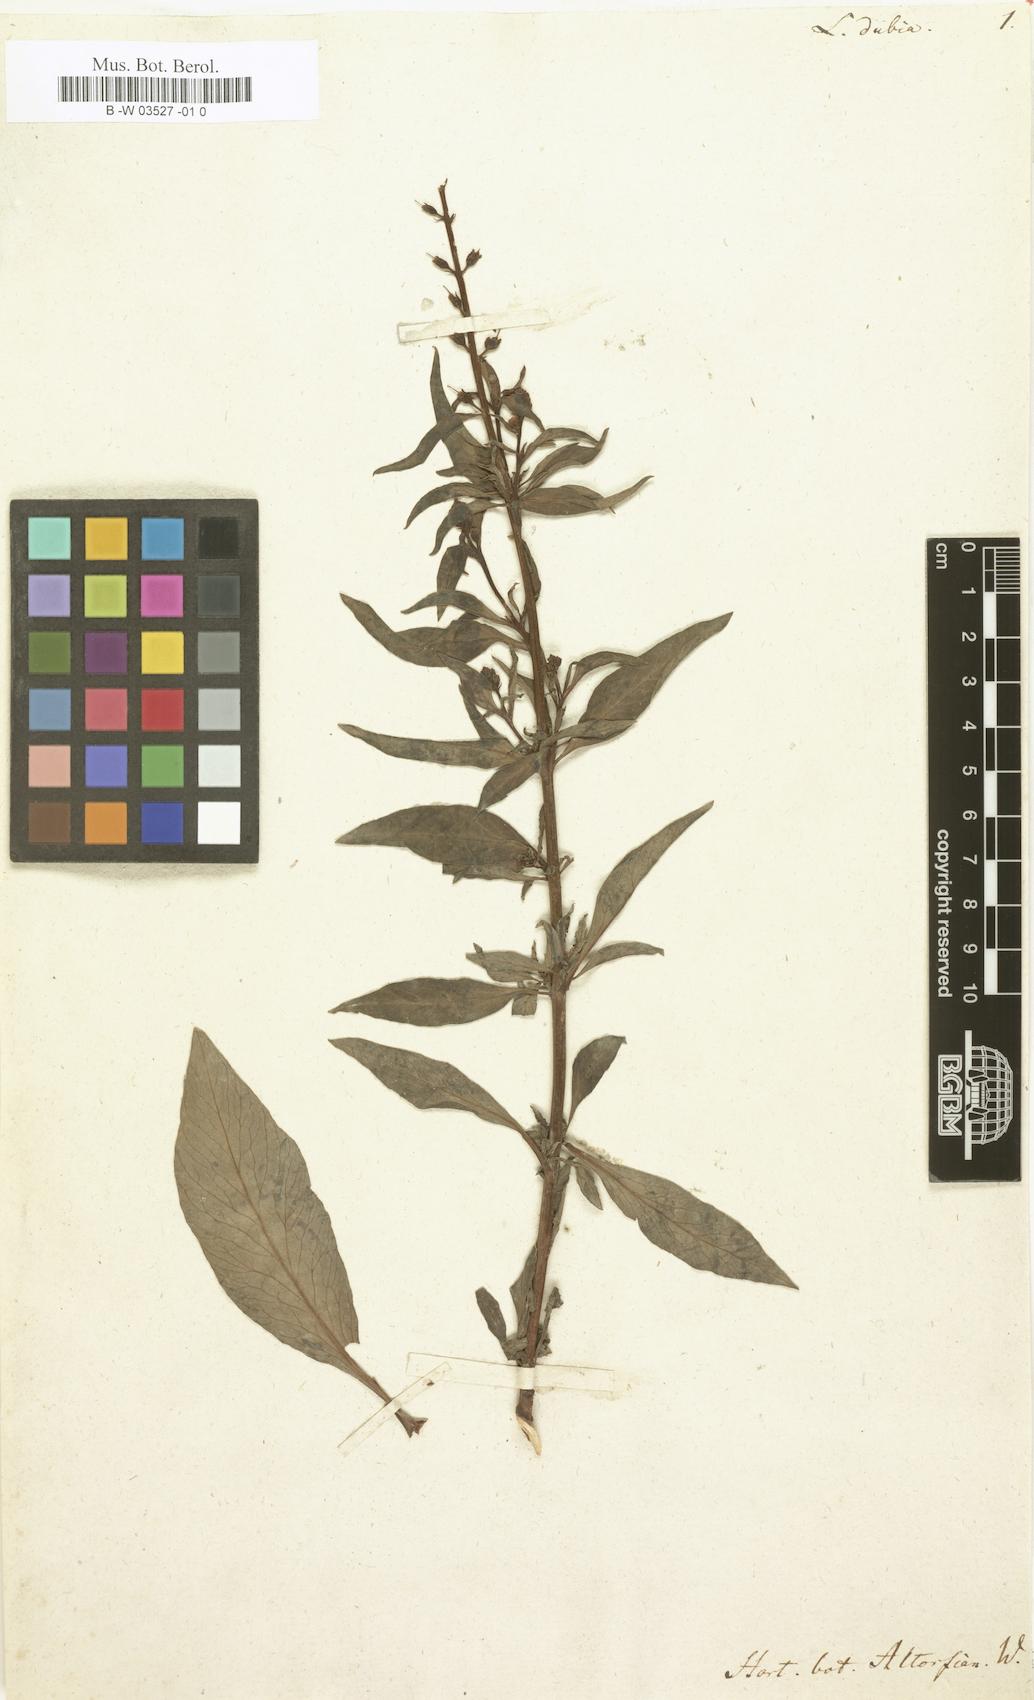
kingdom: Plantae
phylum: Tracheophyta
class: Magnoliopsida
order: Ericales
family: Primulaceae
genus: Lysimachia
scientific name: Lysimachia dubia
